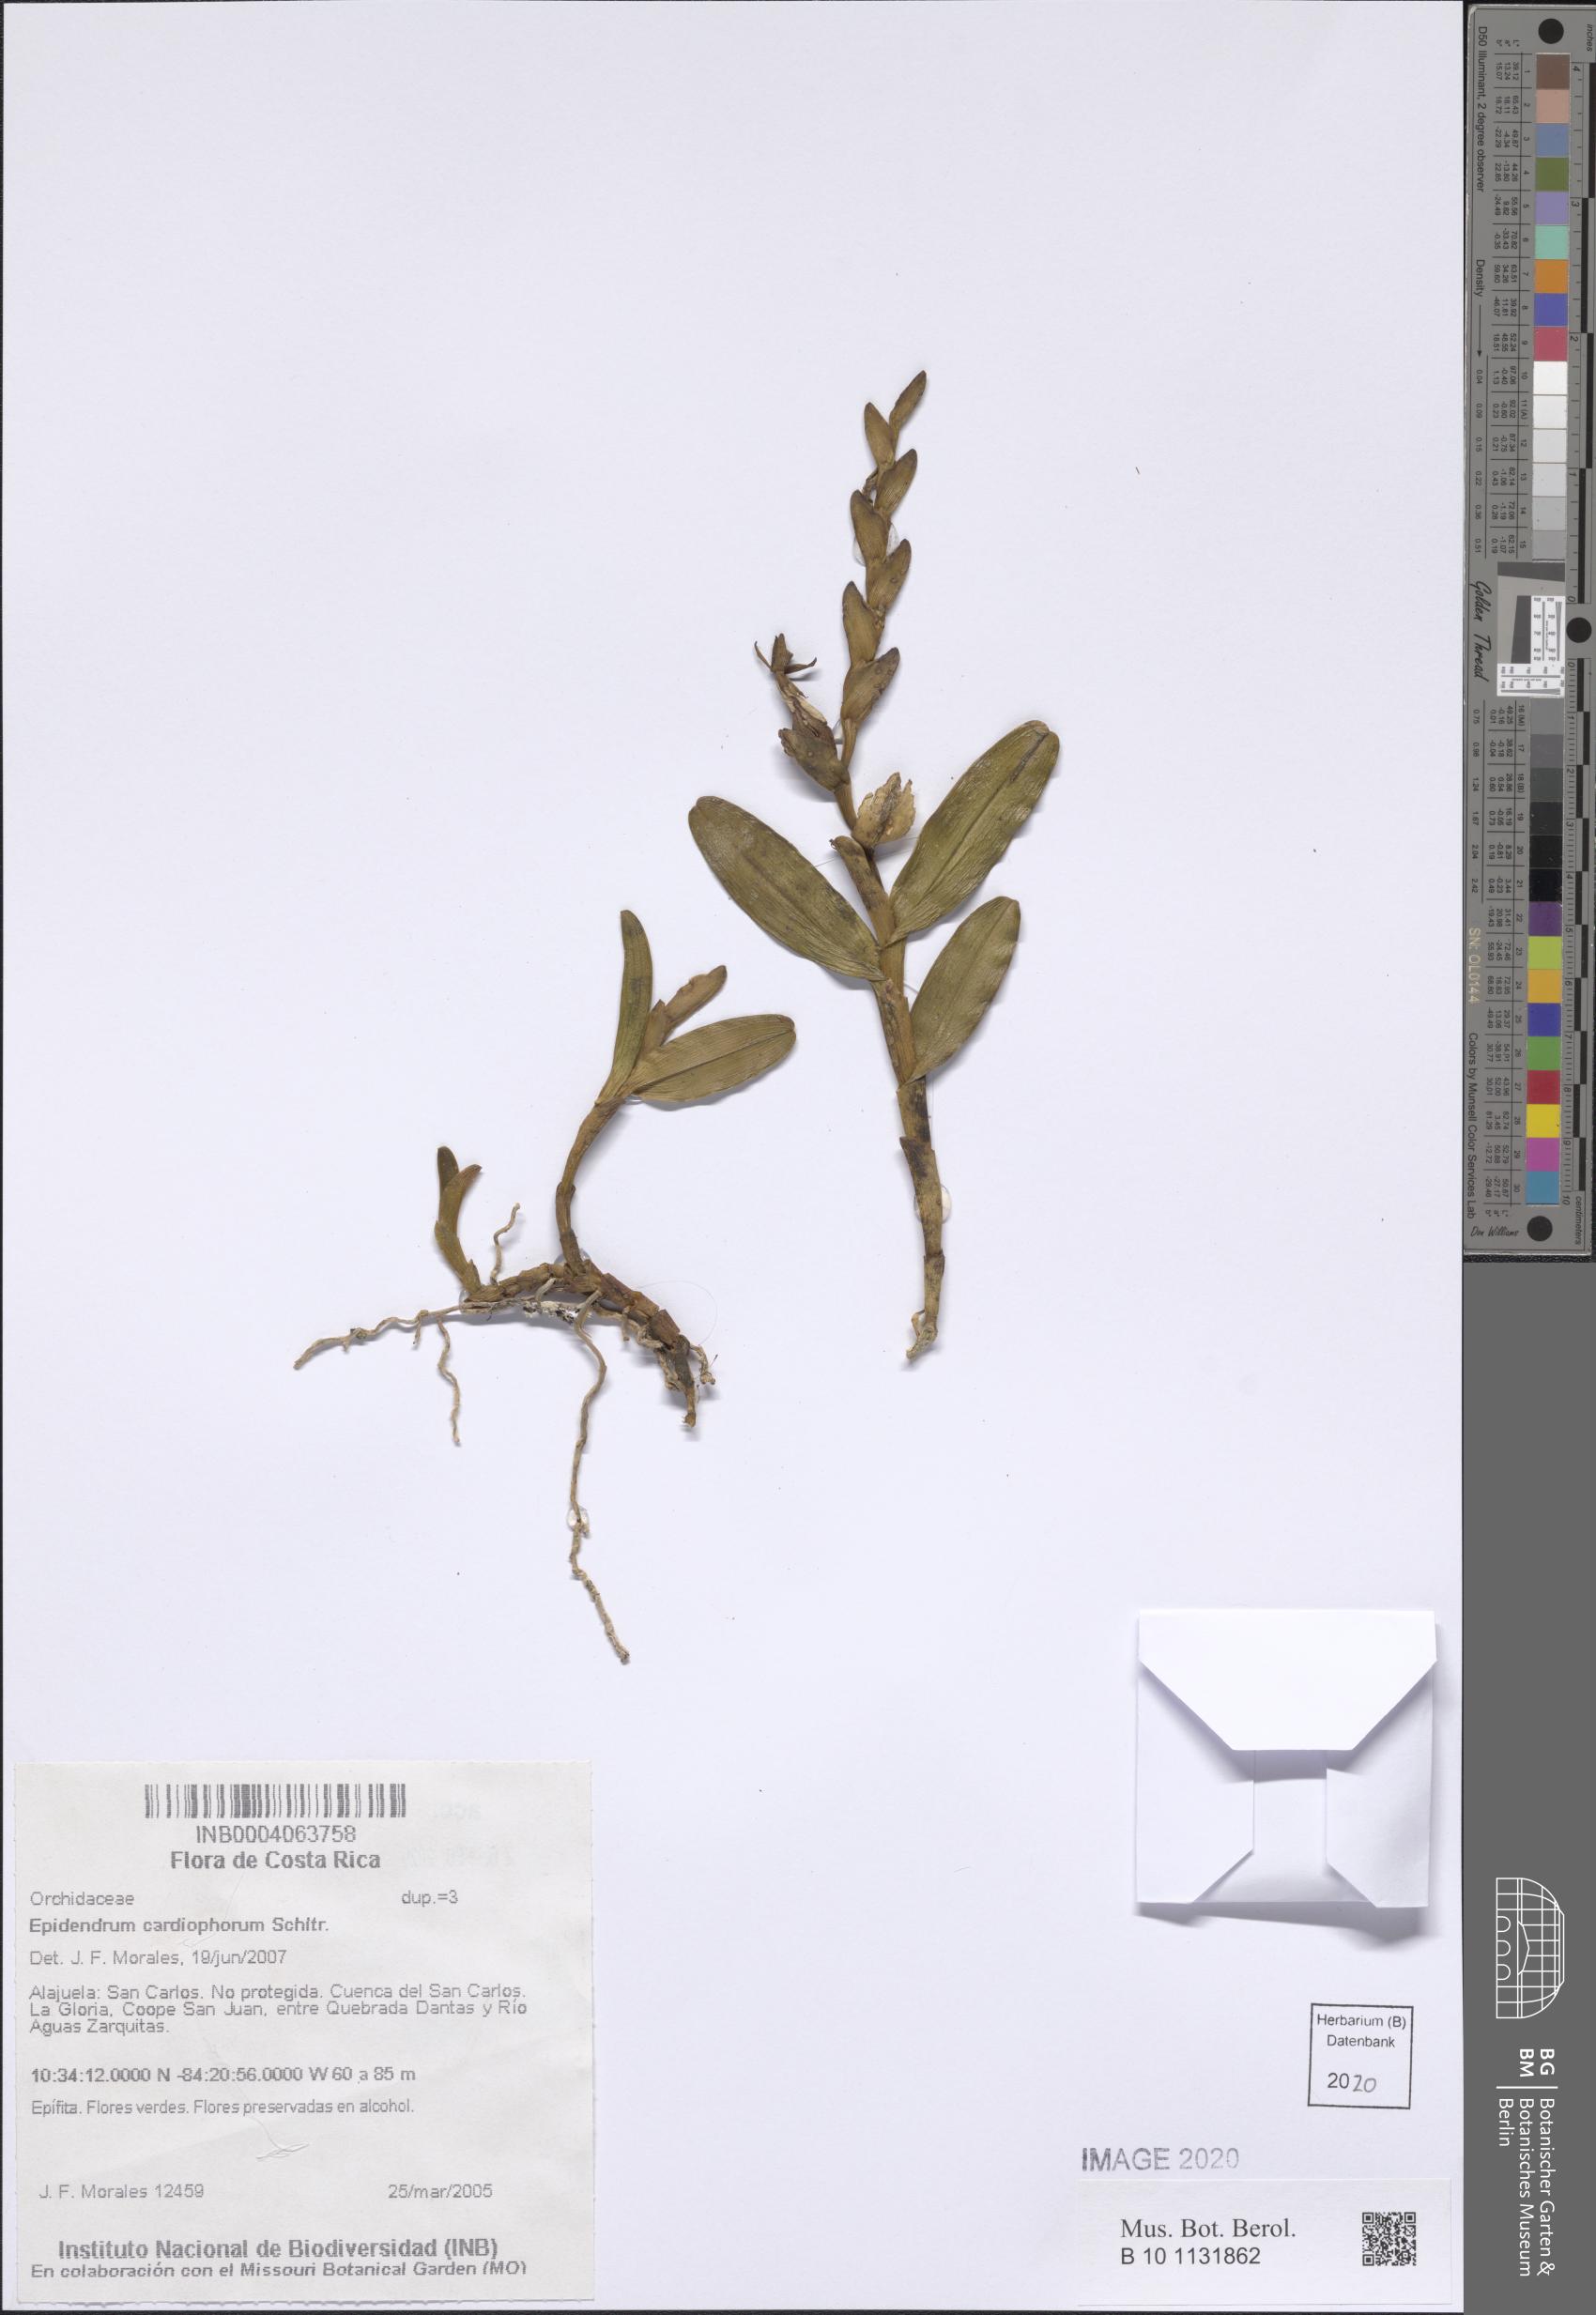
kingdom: Plantae
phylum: Tracheophyta
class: Liliopsida
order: Asparagales
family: Orchidaceae
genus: Epidendrum
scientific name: Epidendrum cardiophorum
